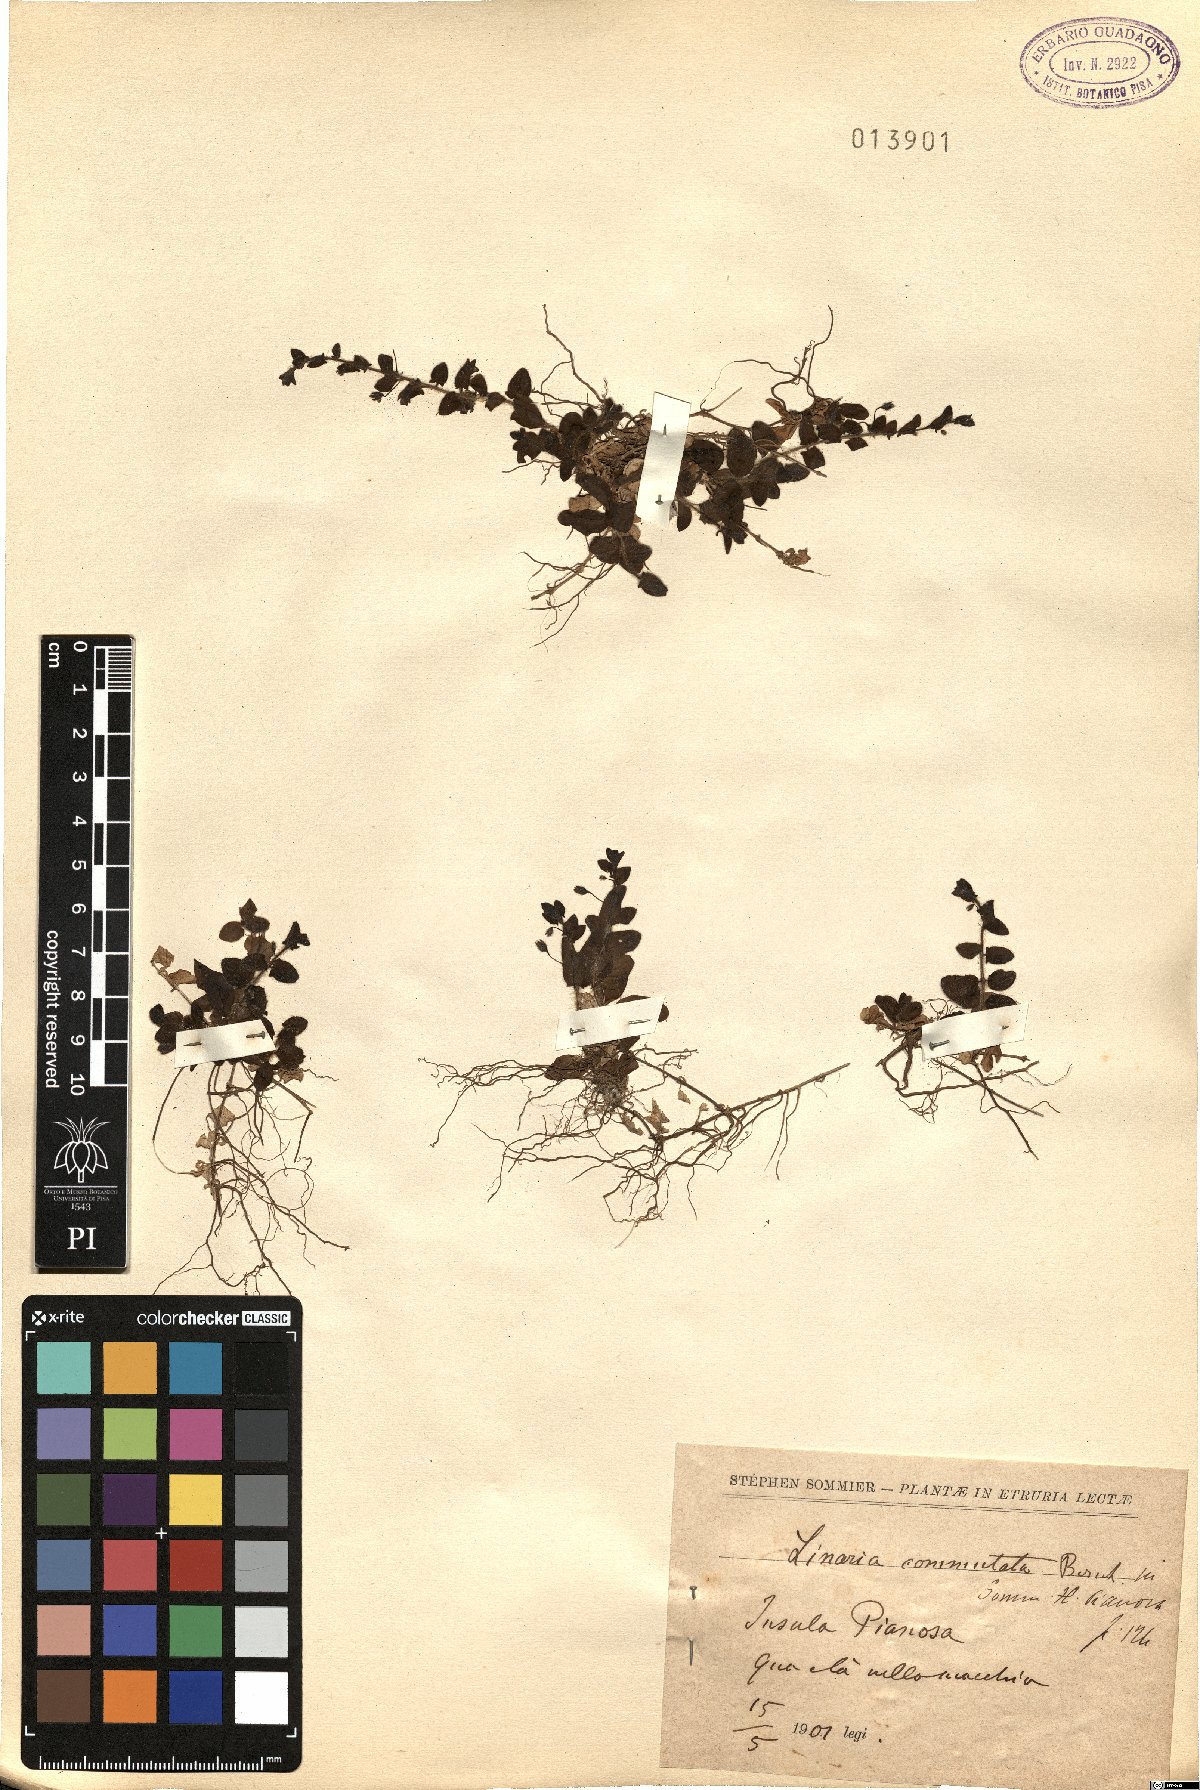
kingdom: Plantae
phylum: Tracheophyta
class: Magnoliopsida
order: Lamiales
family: Plantaginaceae
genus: Kickxia
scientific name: Kickxia elatine
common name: Sharp-leaved fluellen
